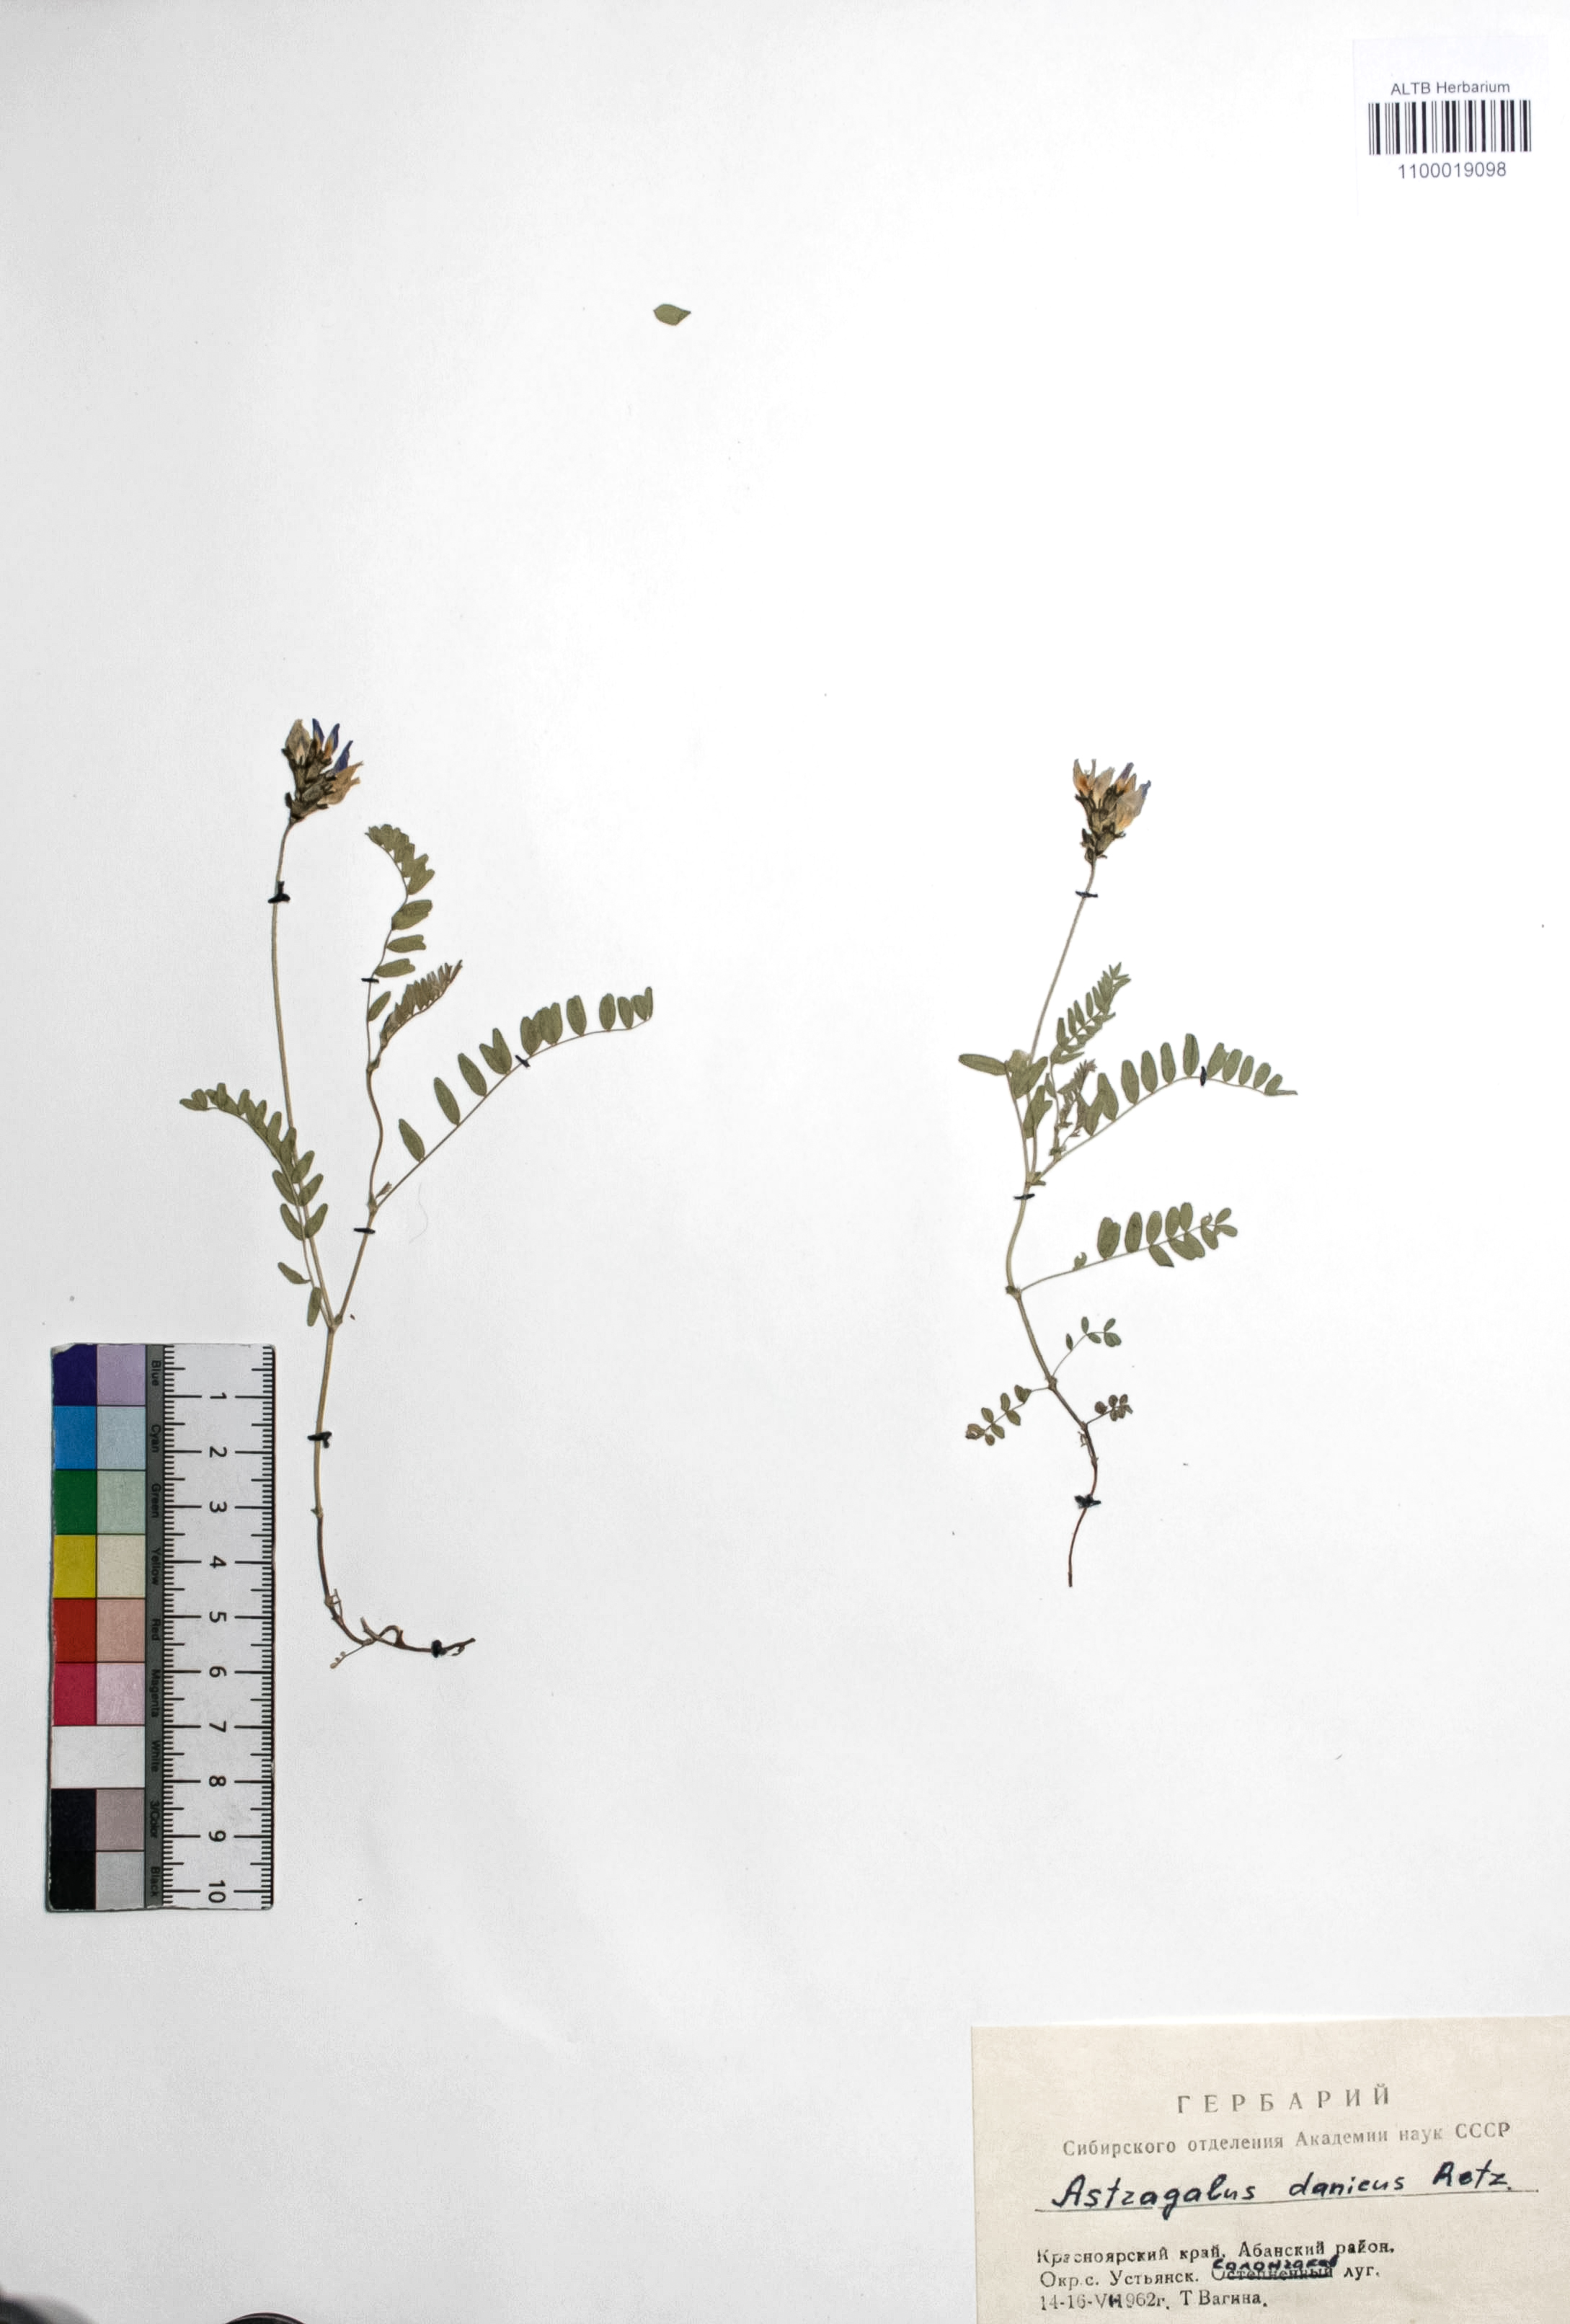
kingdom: Plantae
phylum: Tracheophyta
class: Magnoliopsida
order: Fabales
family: Fabaceae
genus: Astragalus
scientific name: Astragalus danicus
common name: Purple milk-vetch
